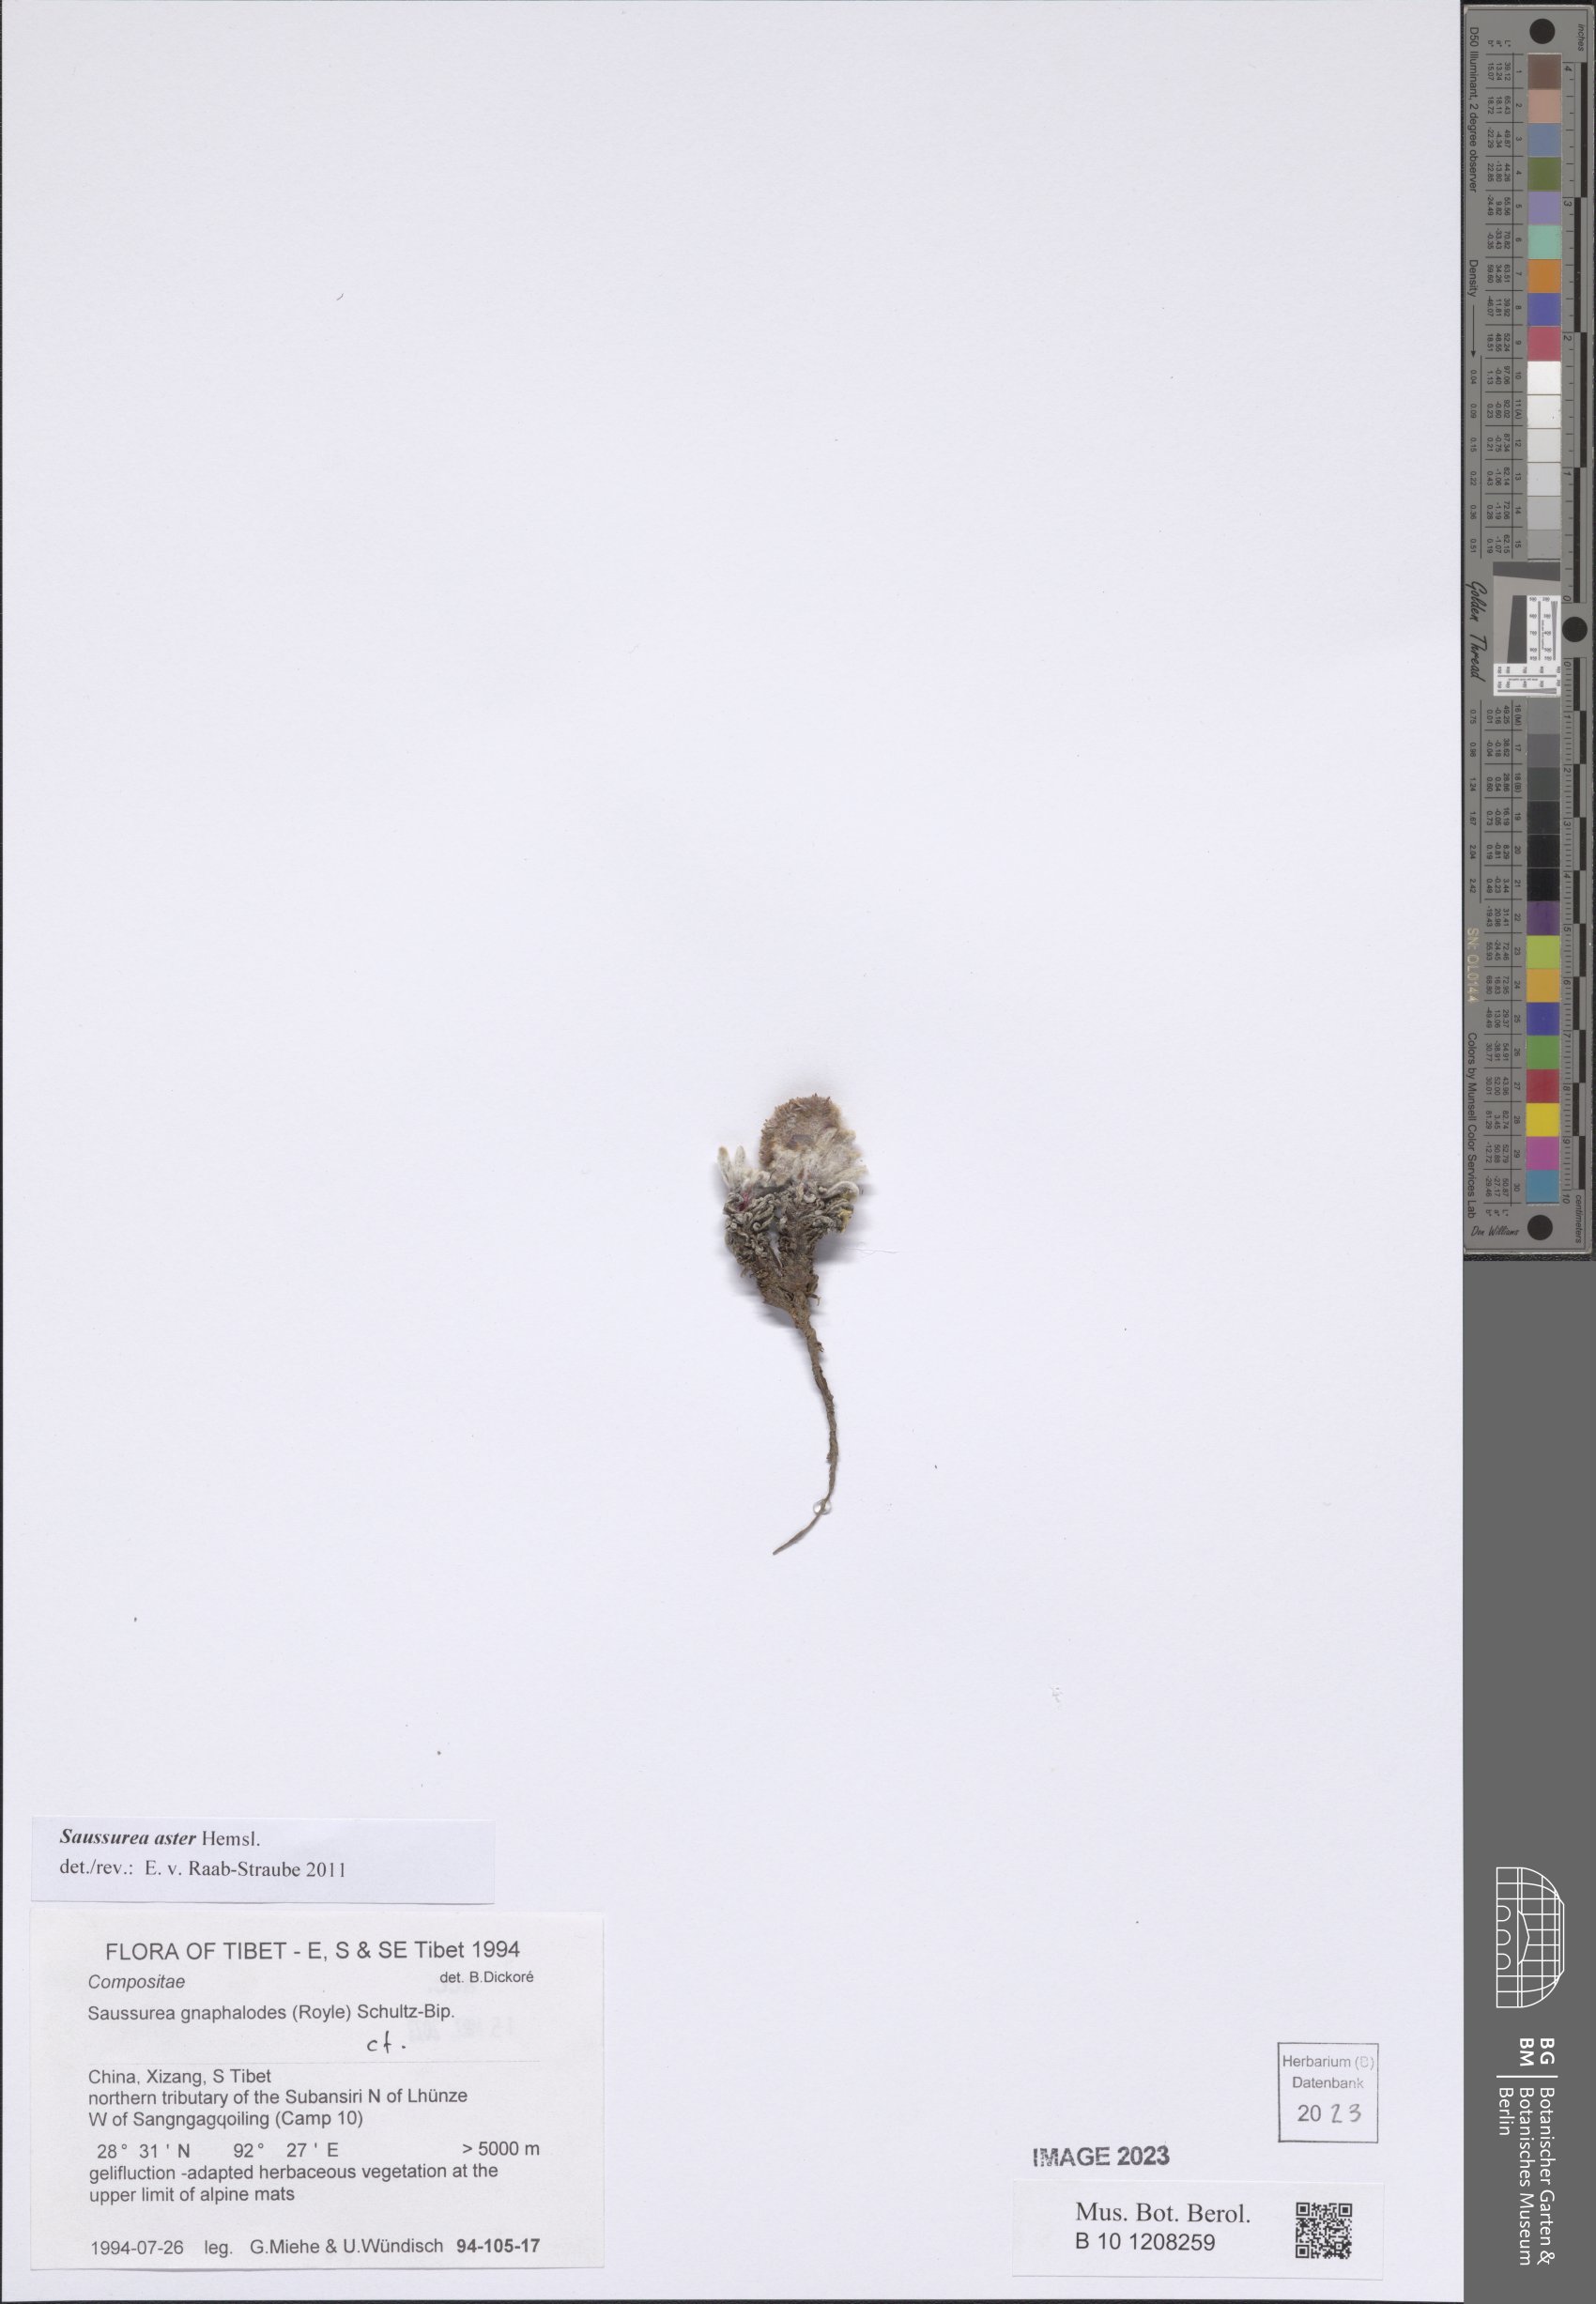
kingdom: Plantae
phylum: Tracheophyta
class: Magnoliopsida
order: Asterales
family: Asteraceae
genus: Saussurea
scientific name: Saussurea aster
